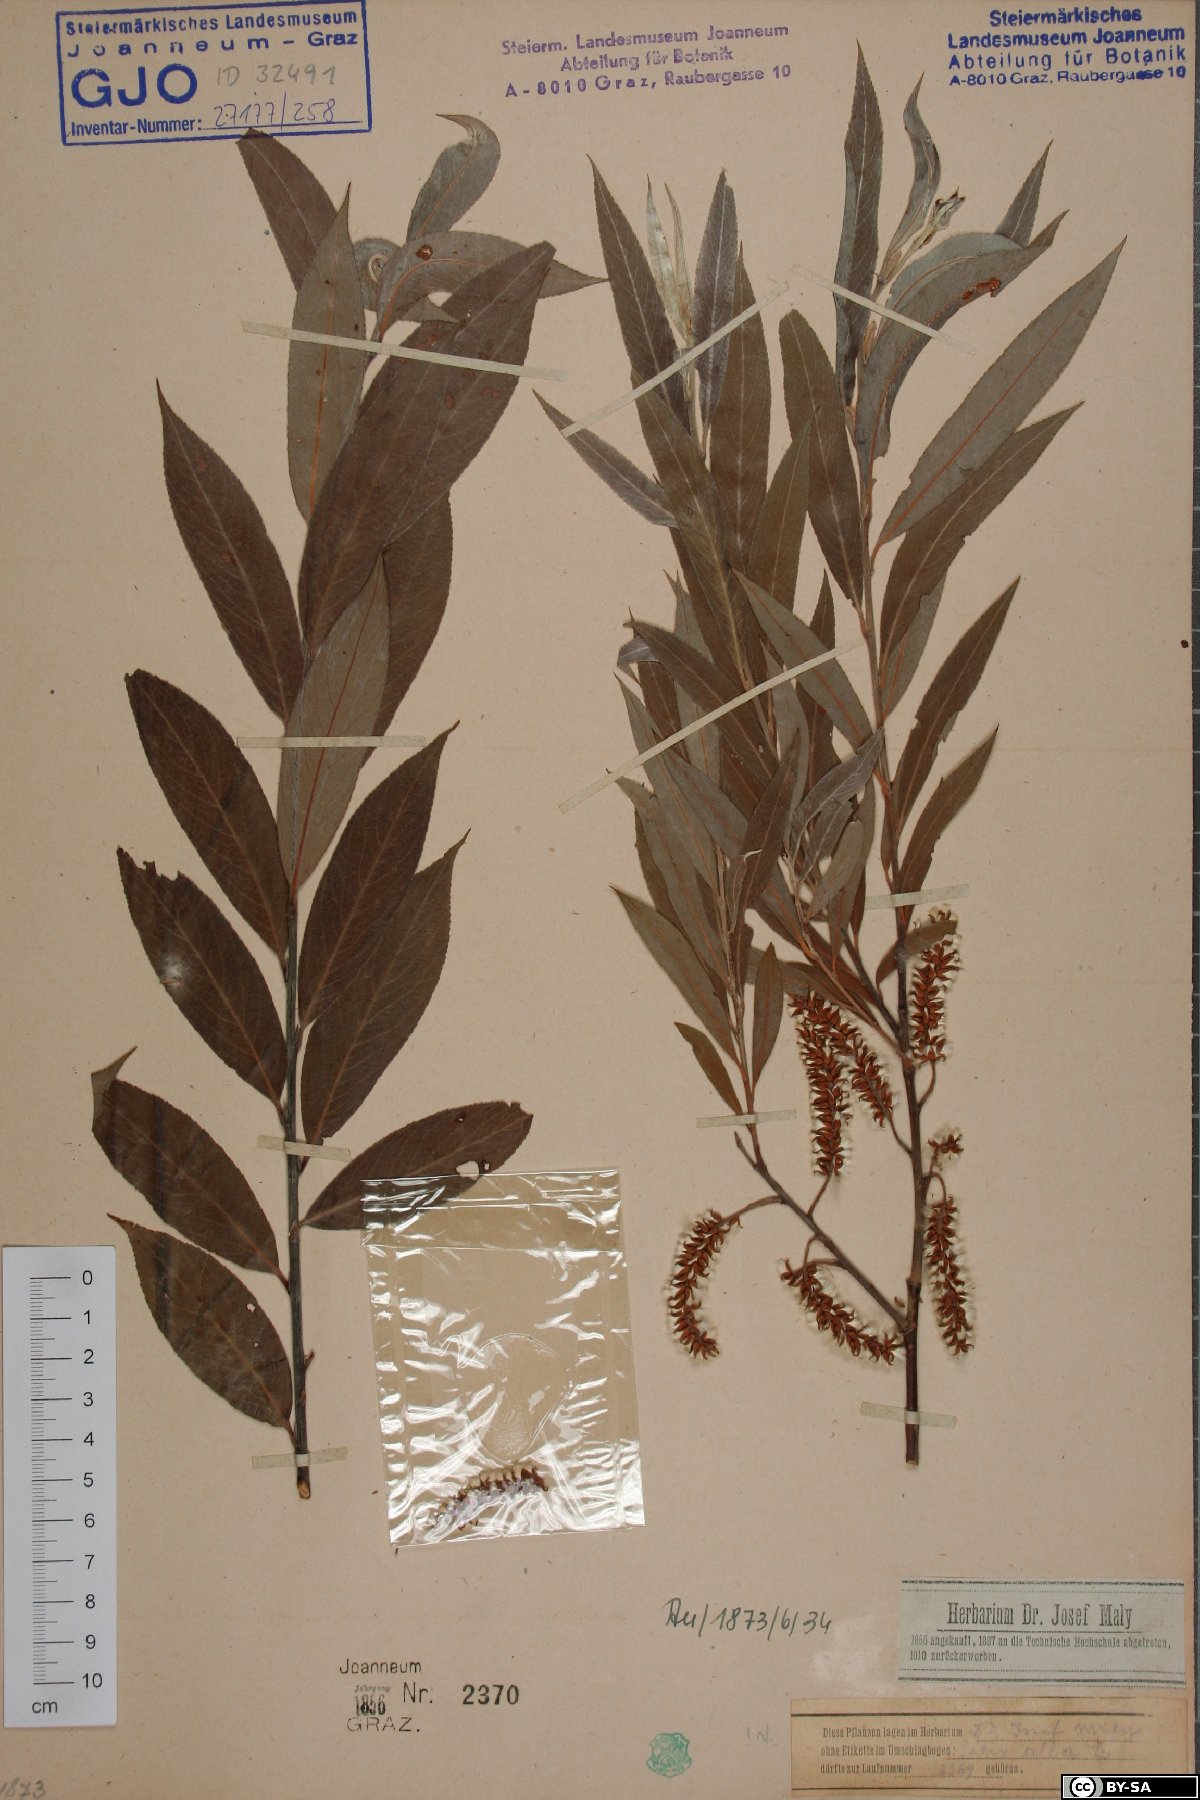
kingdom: Plantae
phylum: Tracheophyta
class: Magnoliopsida
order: Malpighiales
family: Salicaceae
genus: Salix
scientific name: Salix alba
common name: White willow
